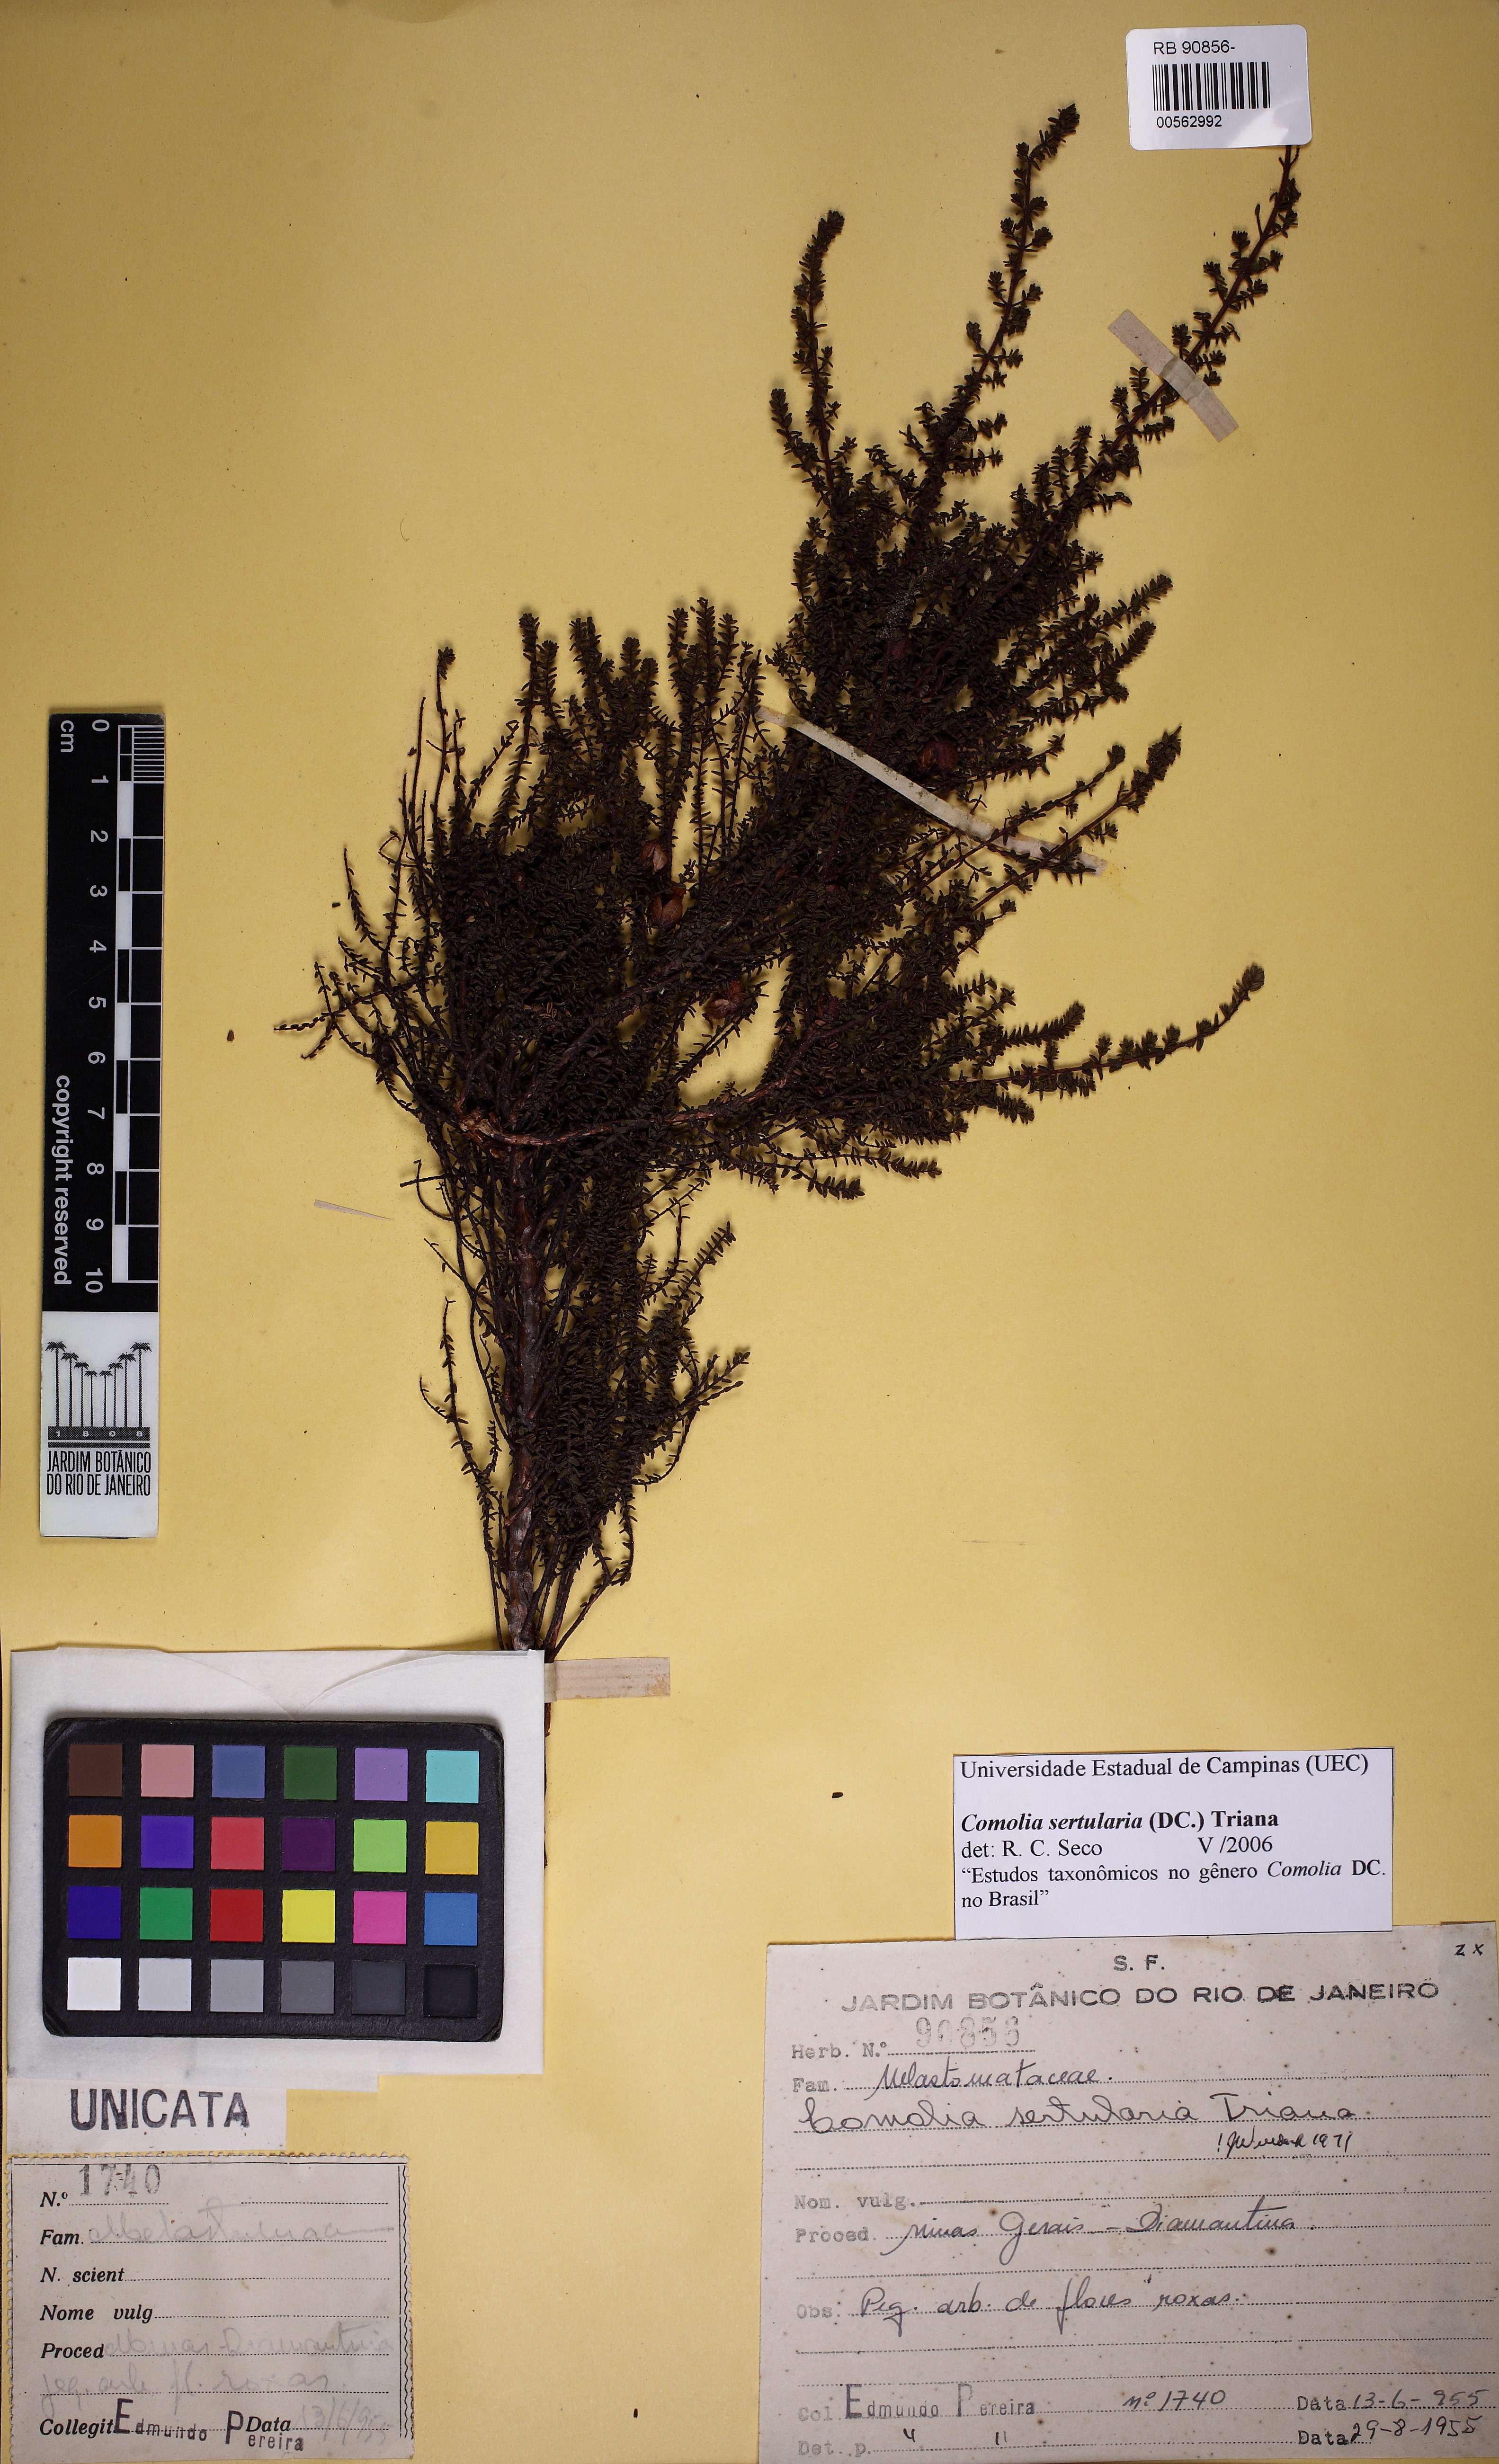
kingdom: Plantae
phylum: Tracheophyta
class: Magnoliopsida
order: Myrtales
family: Melastomataceae
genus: Fritzschia
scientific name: Fritzschia sertularia
